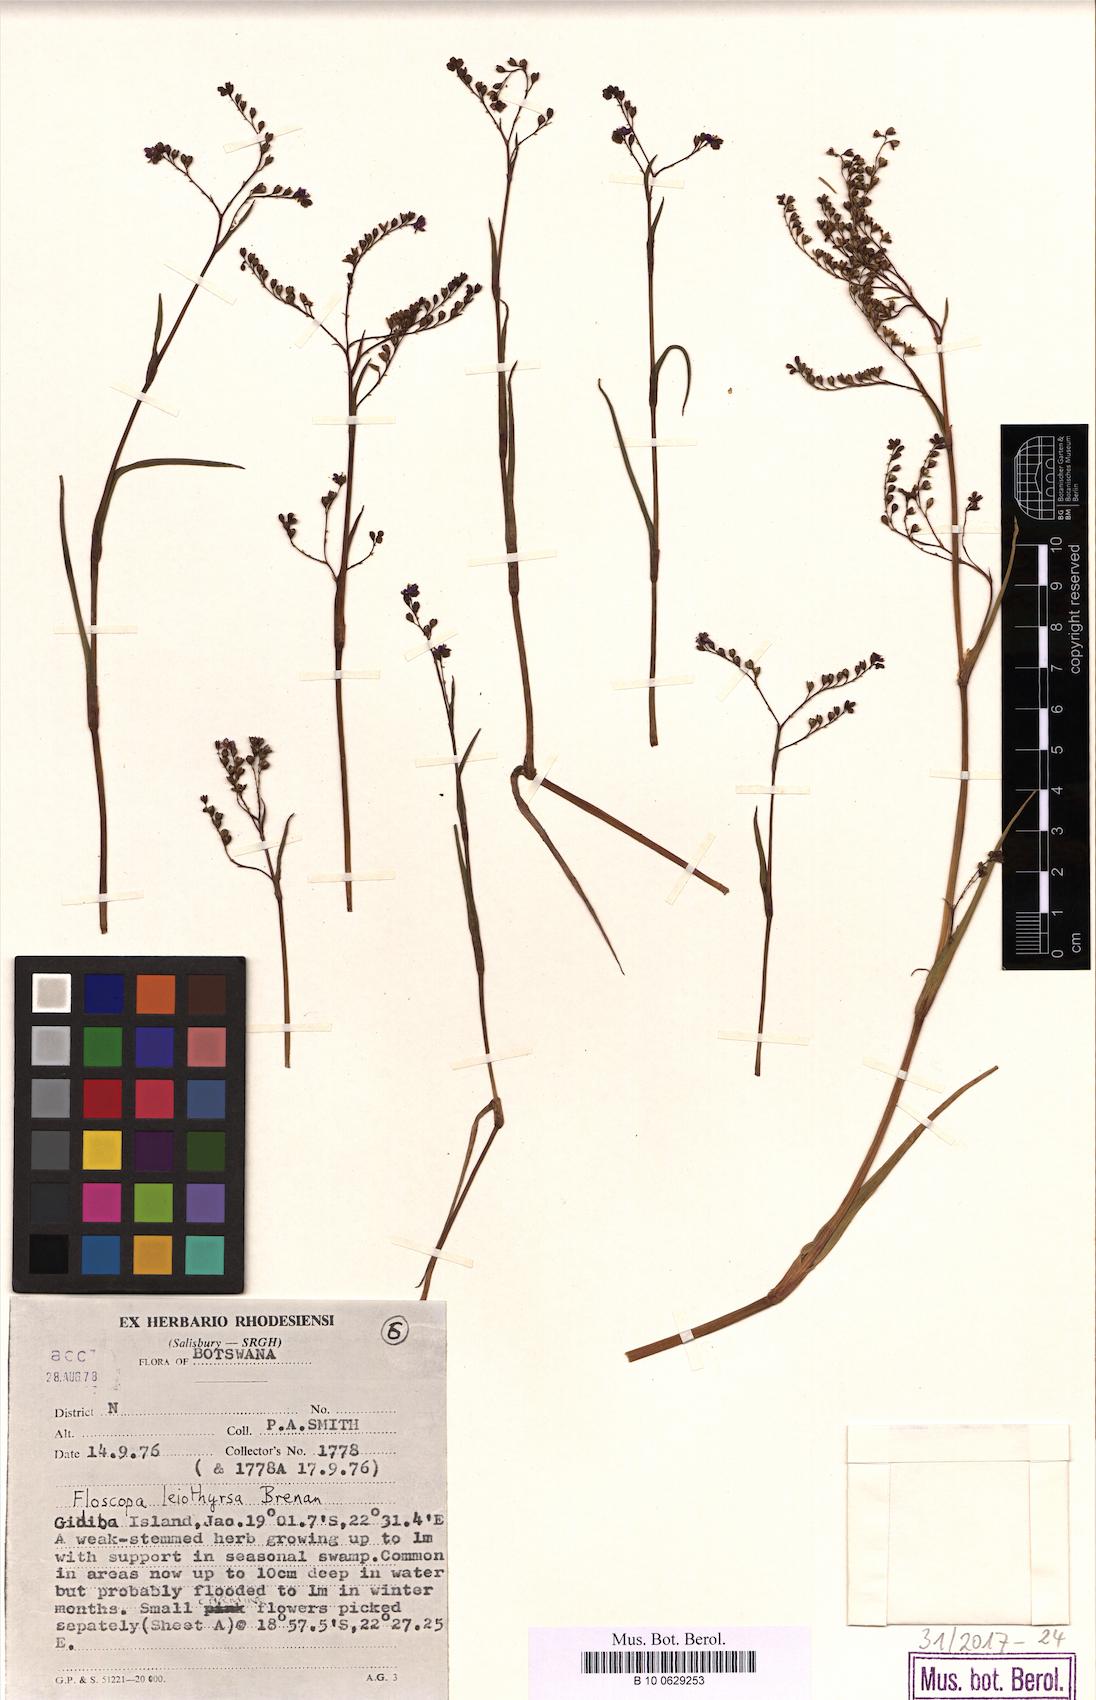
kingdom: Plantae
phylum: Tracheophyta
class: Liliopsida
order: Commelinales
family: Commelinaceae
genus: Floscopa
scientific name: Floscopa leiothyrsa
